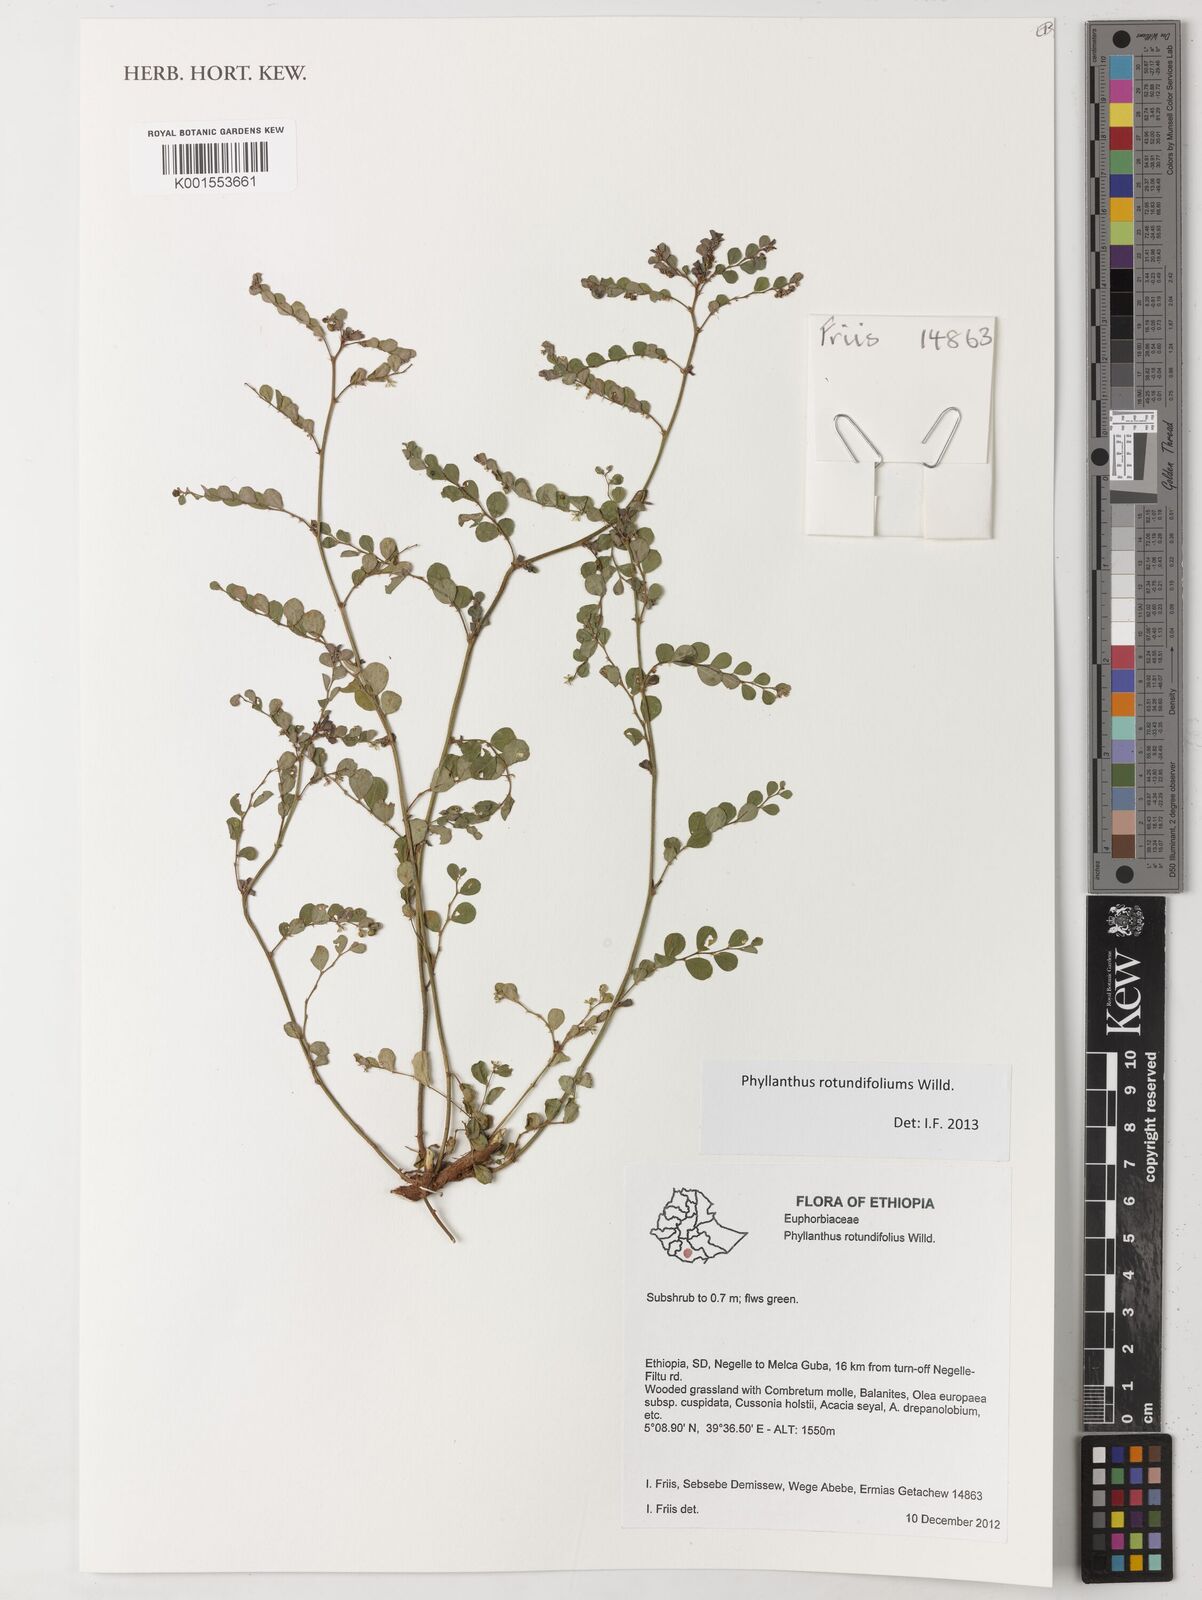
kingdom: Plantae
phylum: Tracheophyta
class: Magnoliopsida
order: Malpighiales
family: Phyllanthaceae
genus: Phyllanthus
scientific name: Phyllanthus rotundifolius
